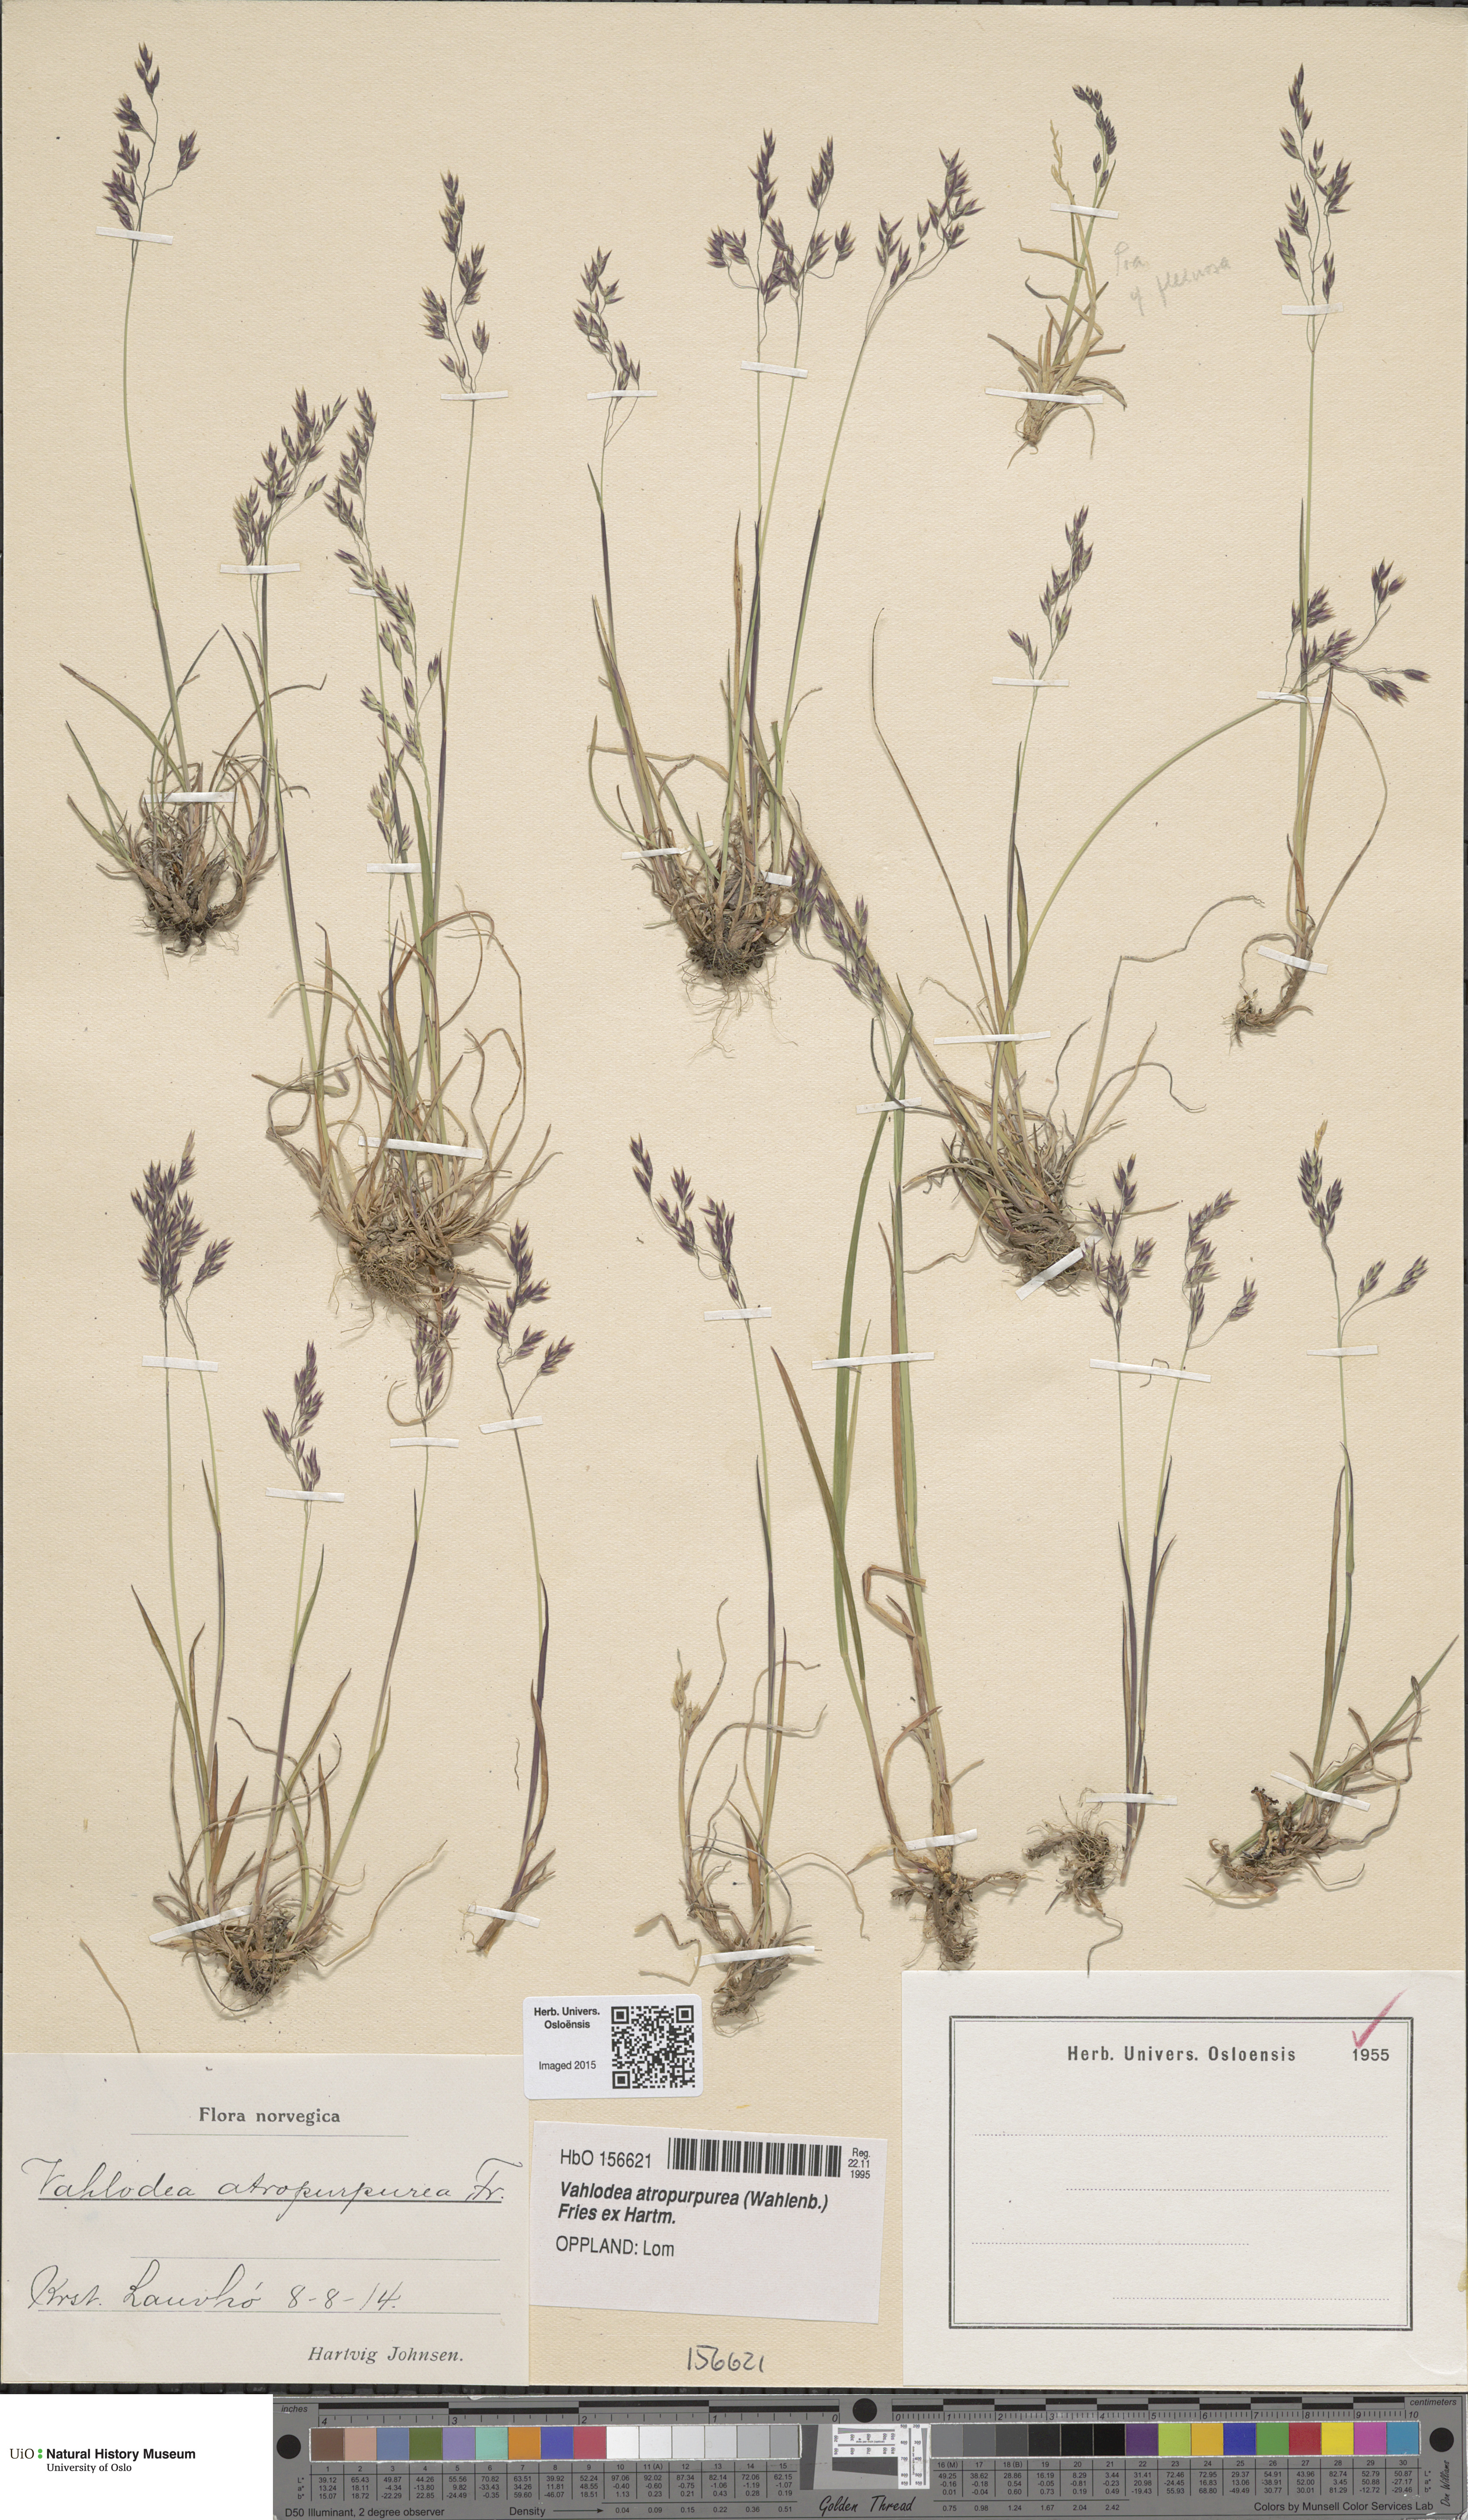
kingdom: Plantae
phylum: Tracheophyta
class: Liliopsida
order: Poales
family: Poaceae
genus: Vahlodea
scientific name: Vahlodea atropurpurea
